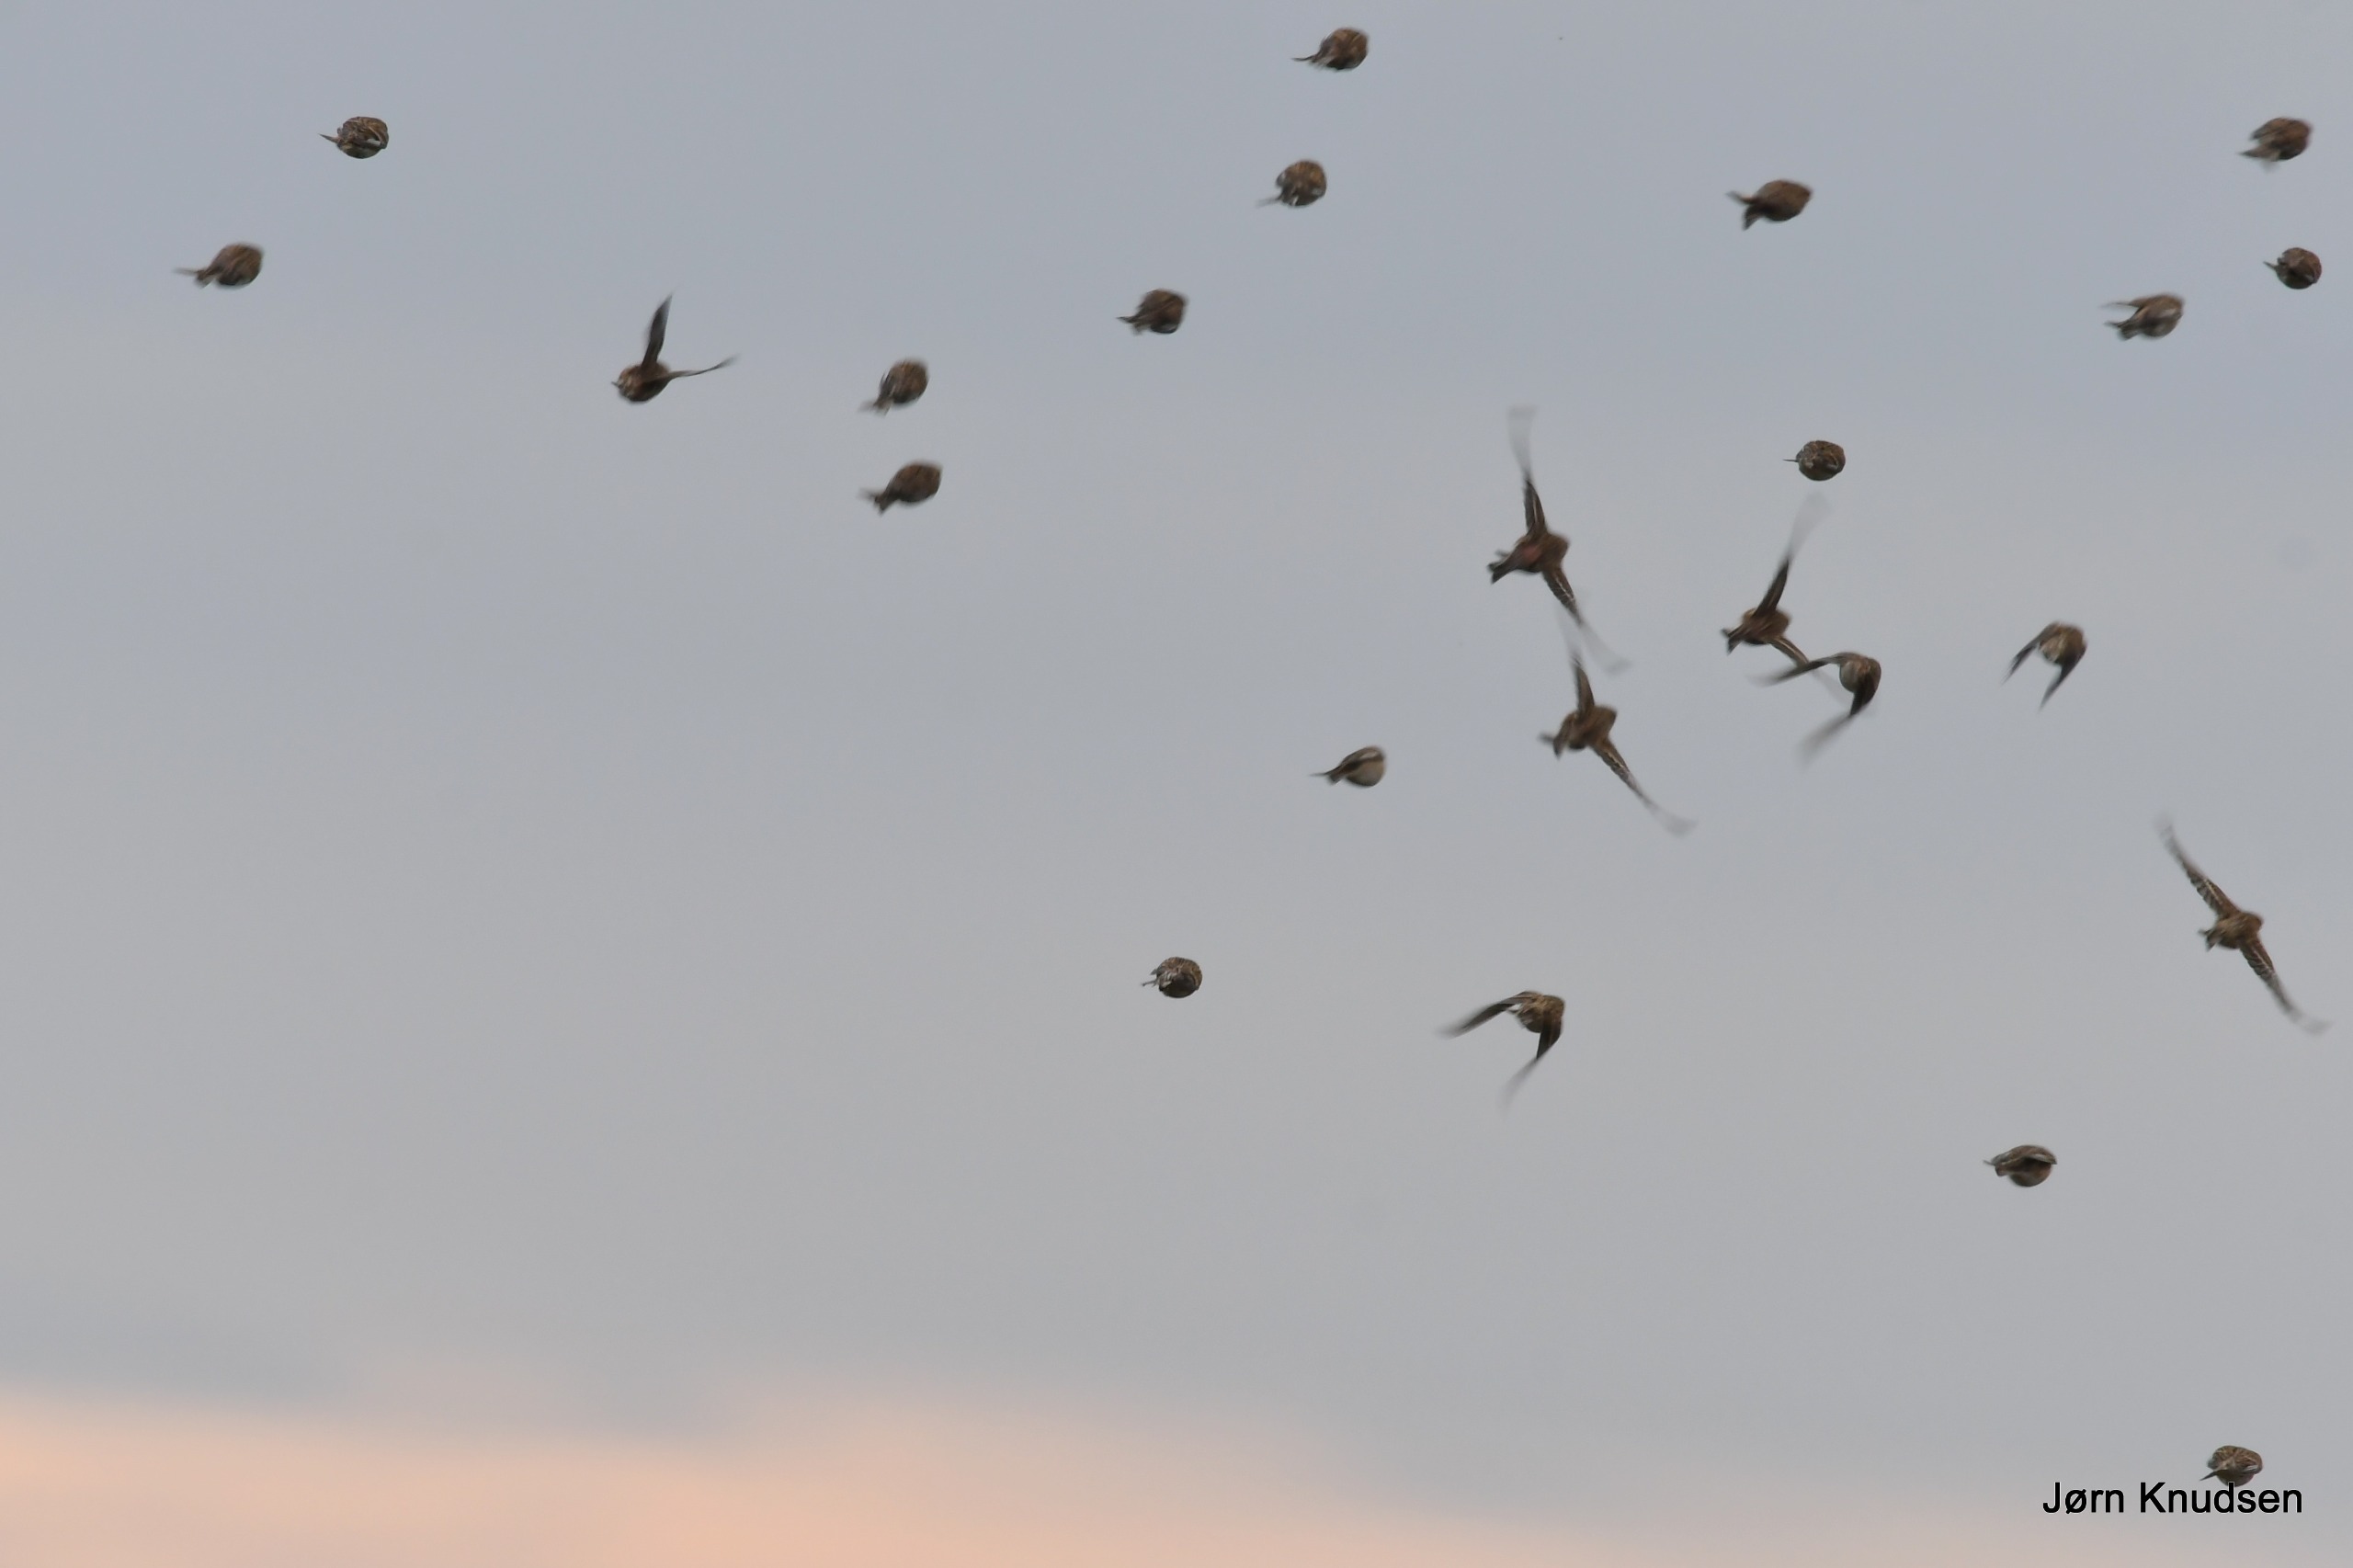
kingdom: Animalia
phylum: Chordata
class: Aves
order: Passeriformes
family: Fringillidae
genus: Linaria
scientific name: Linaria flavirostris
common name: Bjergirisk
